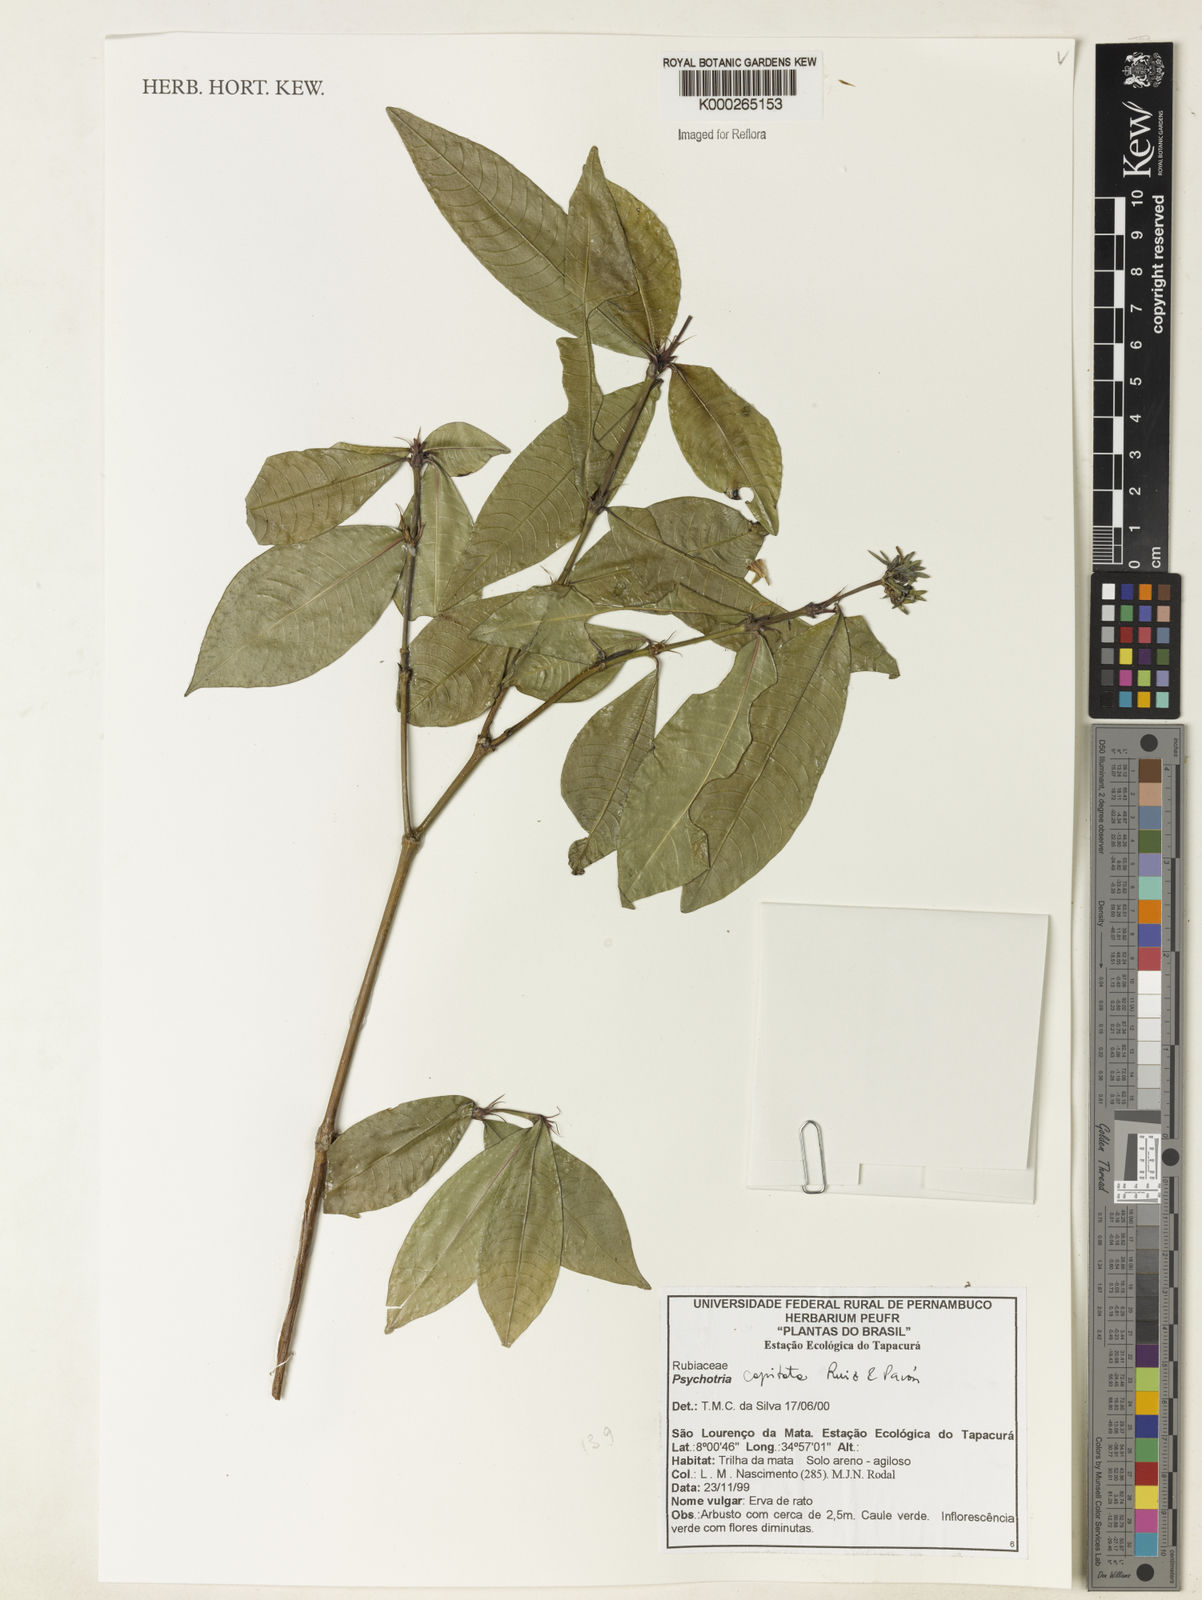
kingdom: Plantae
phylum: Tracheophyta
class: Magnoliopsida
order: Gentianales
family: Rubiaceae
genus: Psychotria
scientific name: Psychotria
